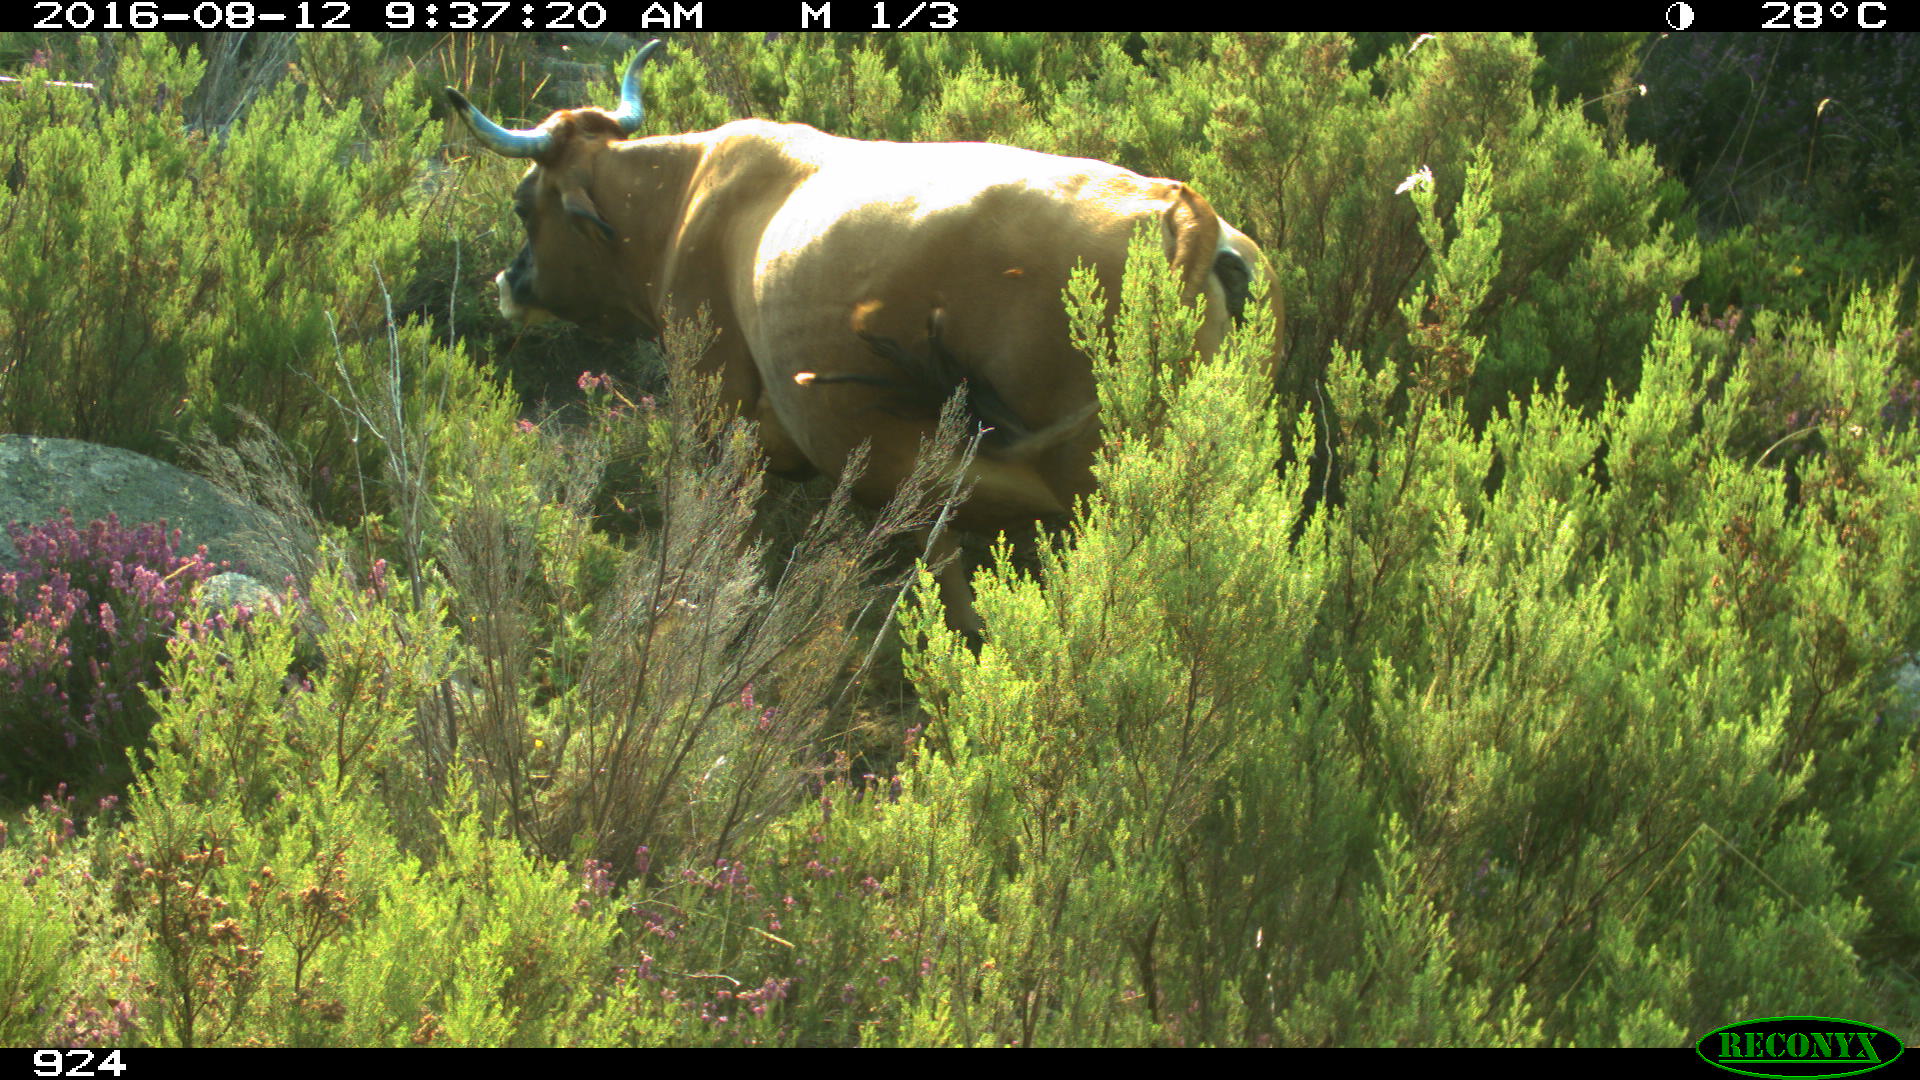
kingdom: Animalia
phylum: Chordata
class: Mammalia
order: Artiodactyla
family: Bovidae
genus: Bos
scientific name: Bos taurus
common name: Domesticated cattle
